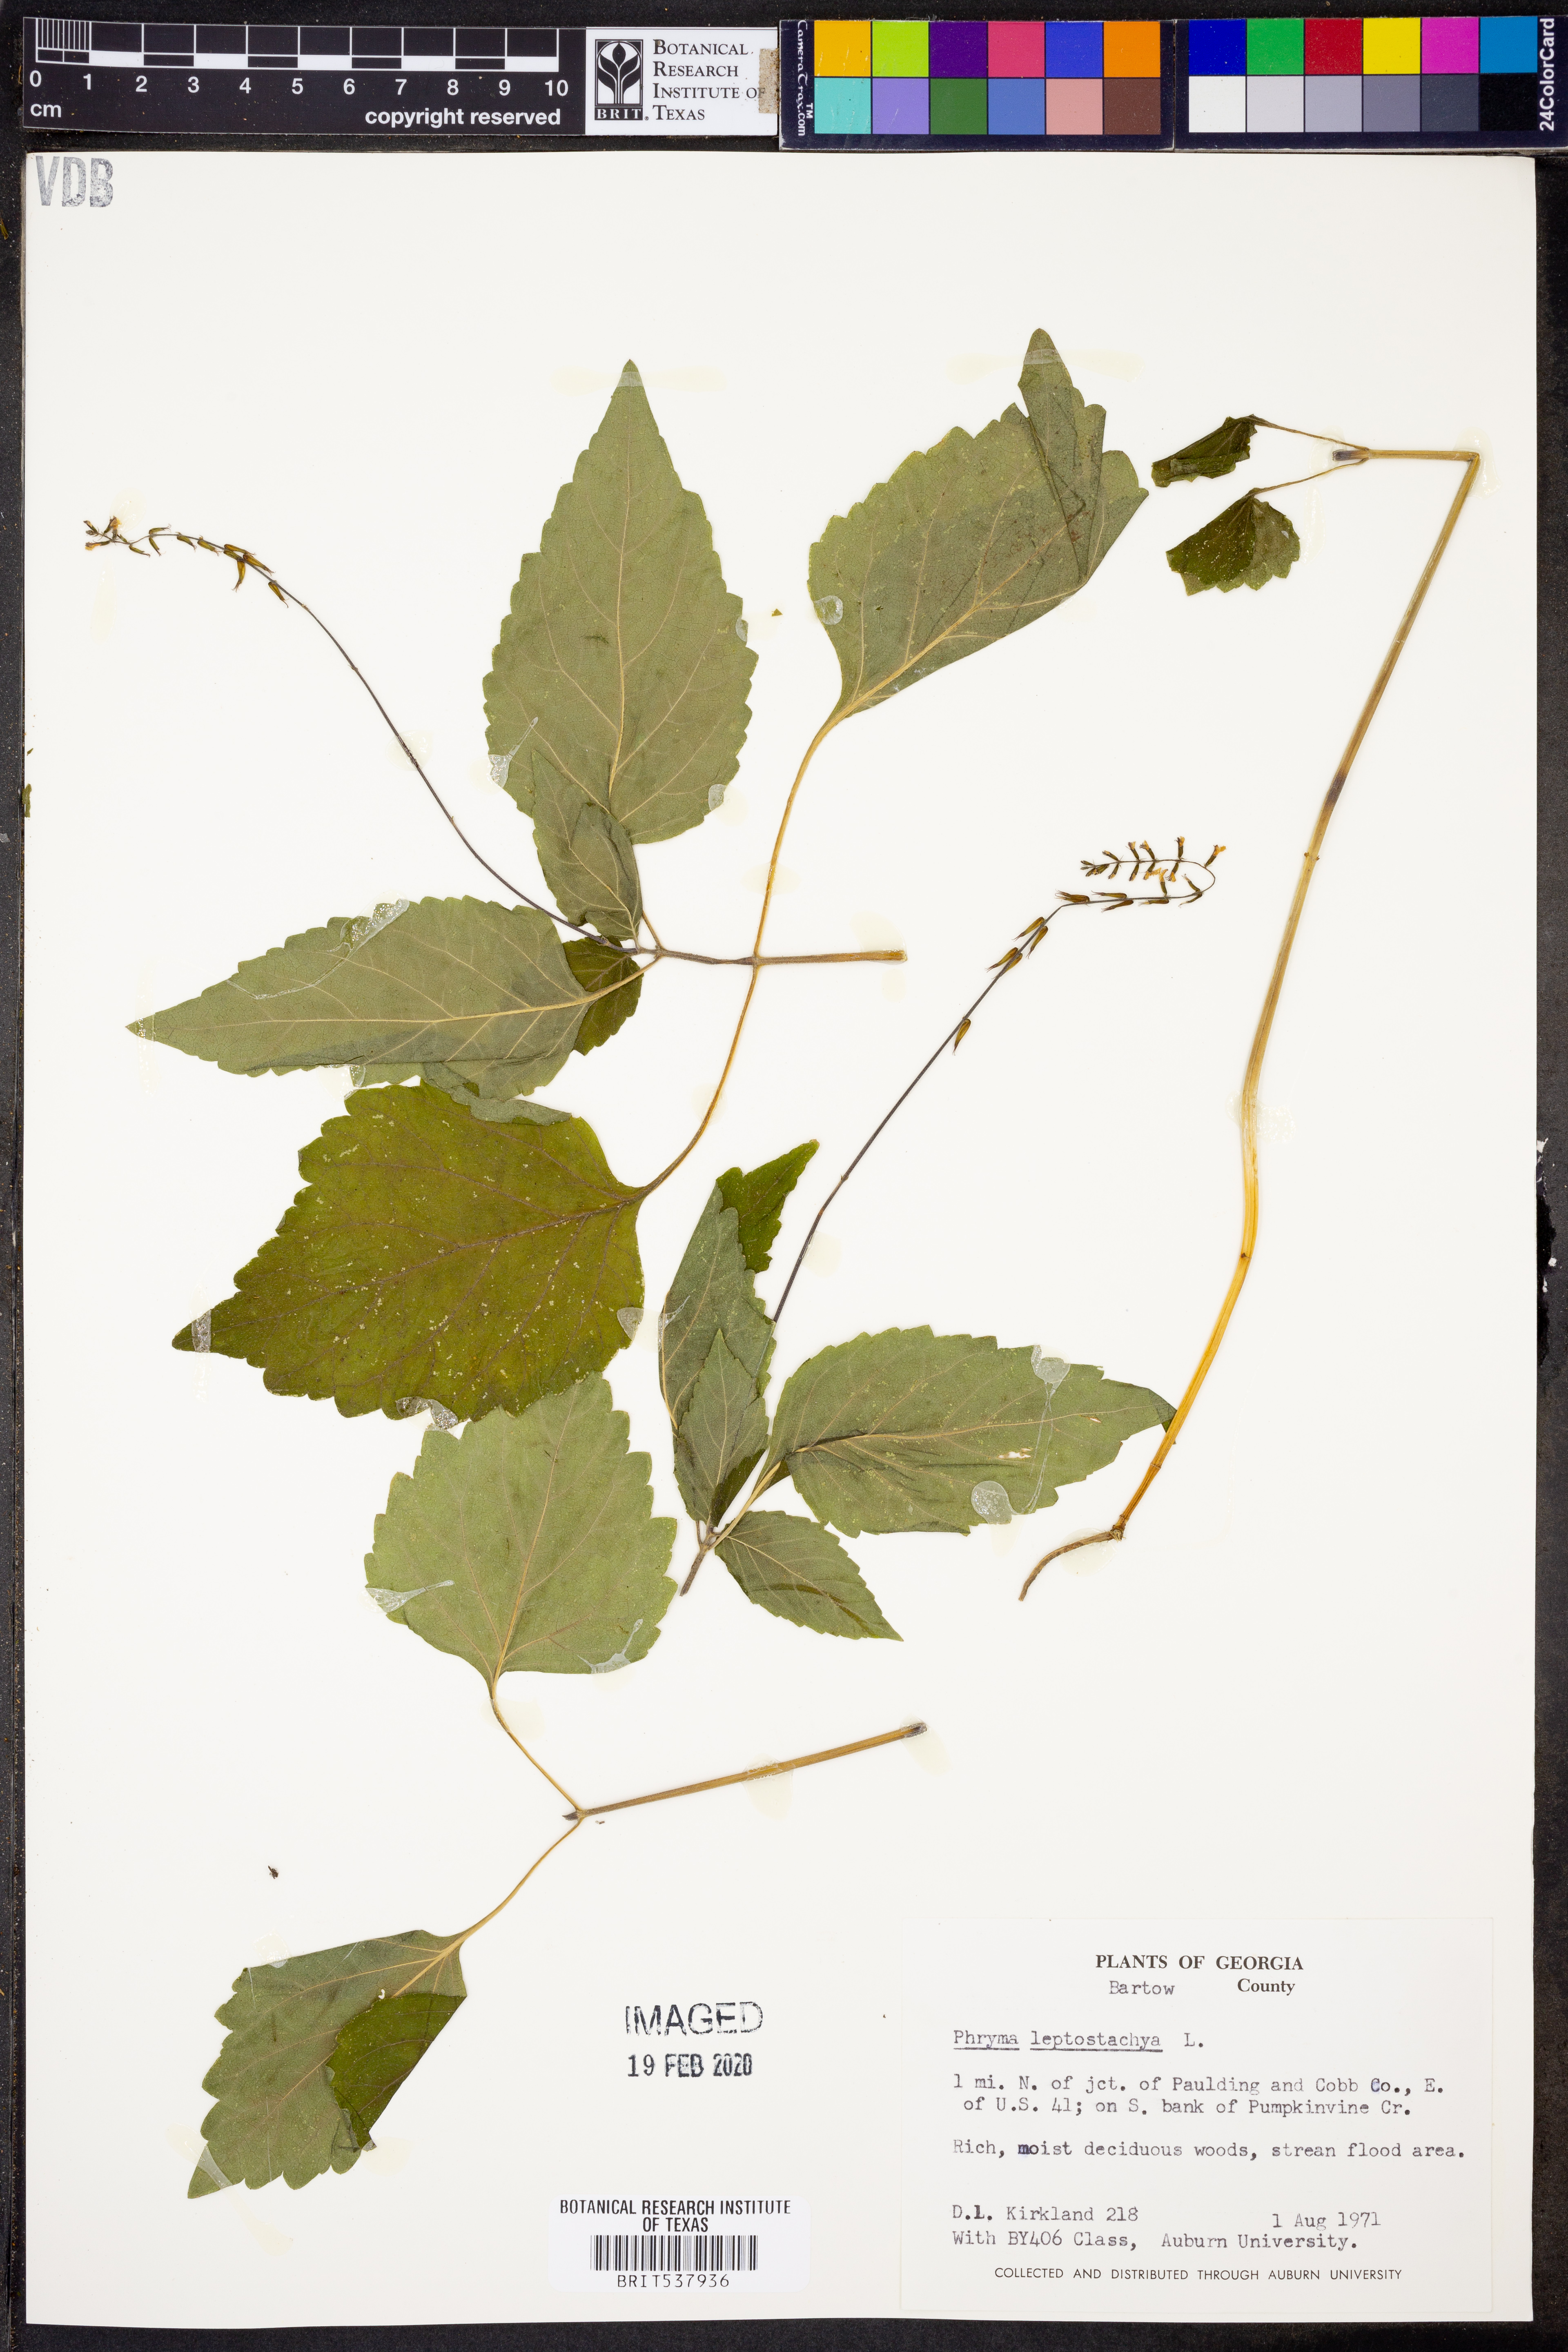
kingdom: Plantae
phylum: Tracheophyta
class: Magnoliopsida
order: Lamiales
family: Phrymaceae
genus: Phryma
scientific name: Phryma leptostachya
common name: American lopseed
